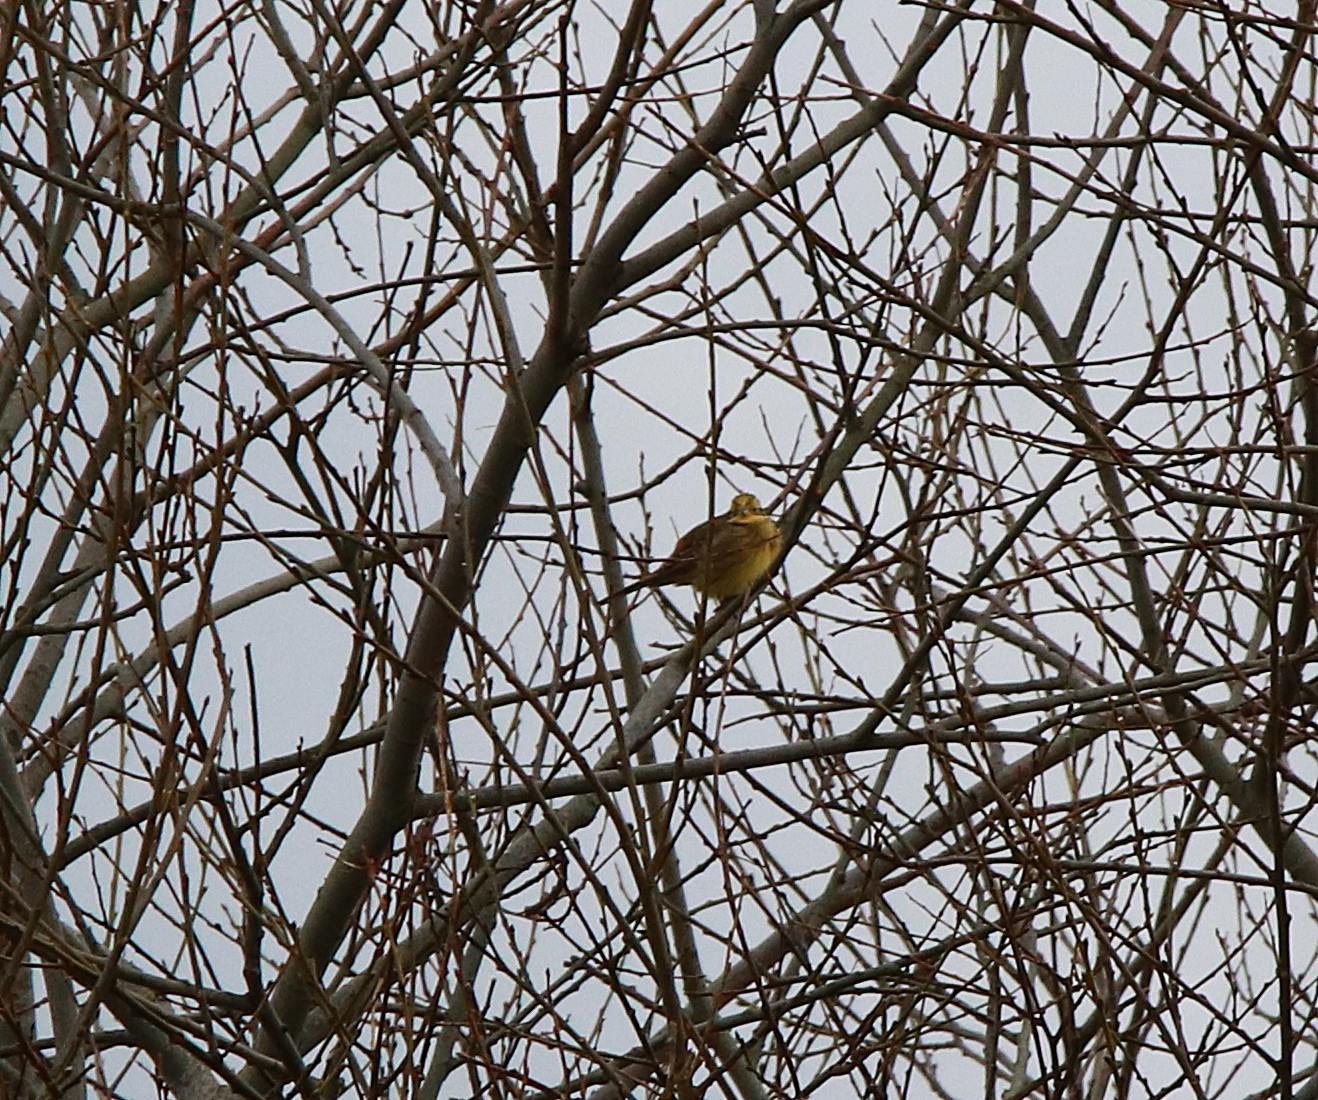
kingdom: Animalia
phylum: Chordata
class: Aves
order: Passeriformes
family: Emberizidae
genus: Emberiza
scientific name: Emberiza citrinella
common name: Gulspurv
